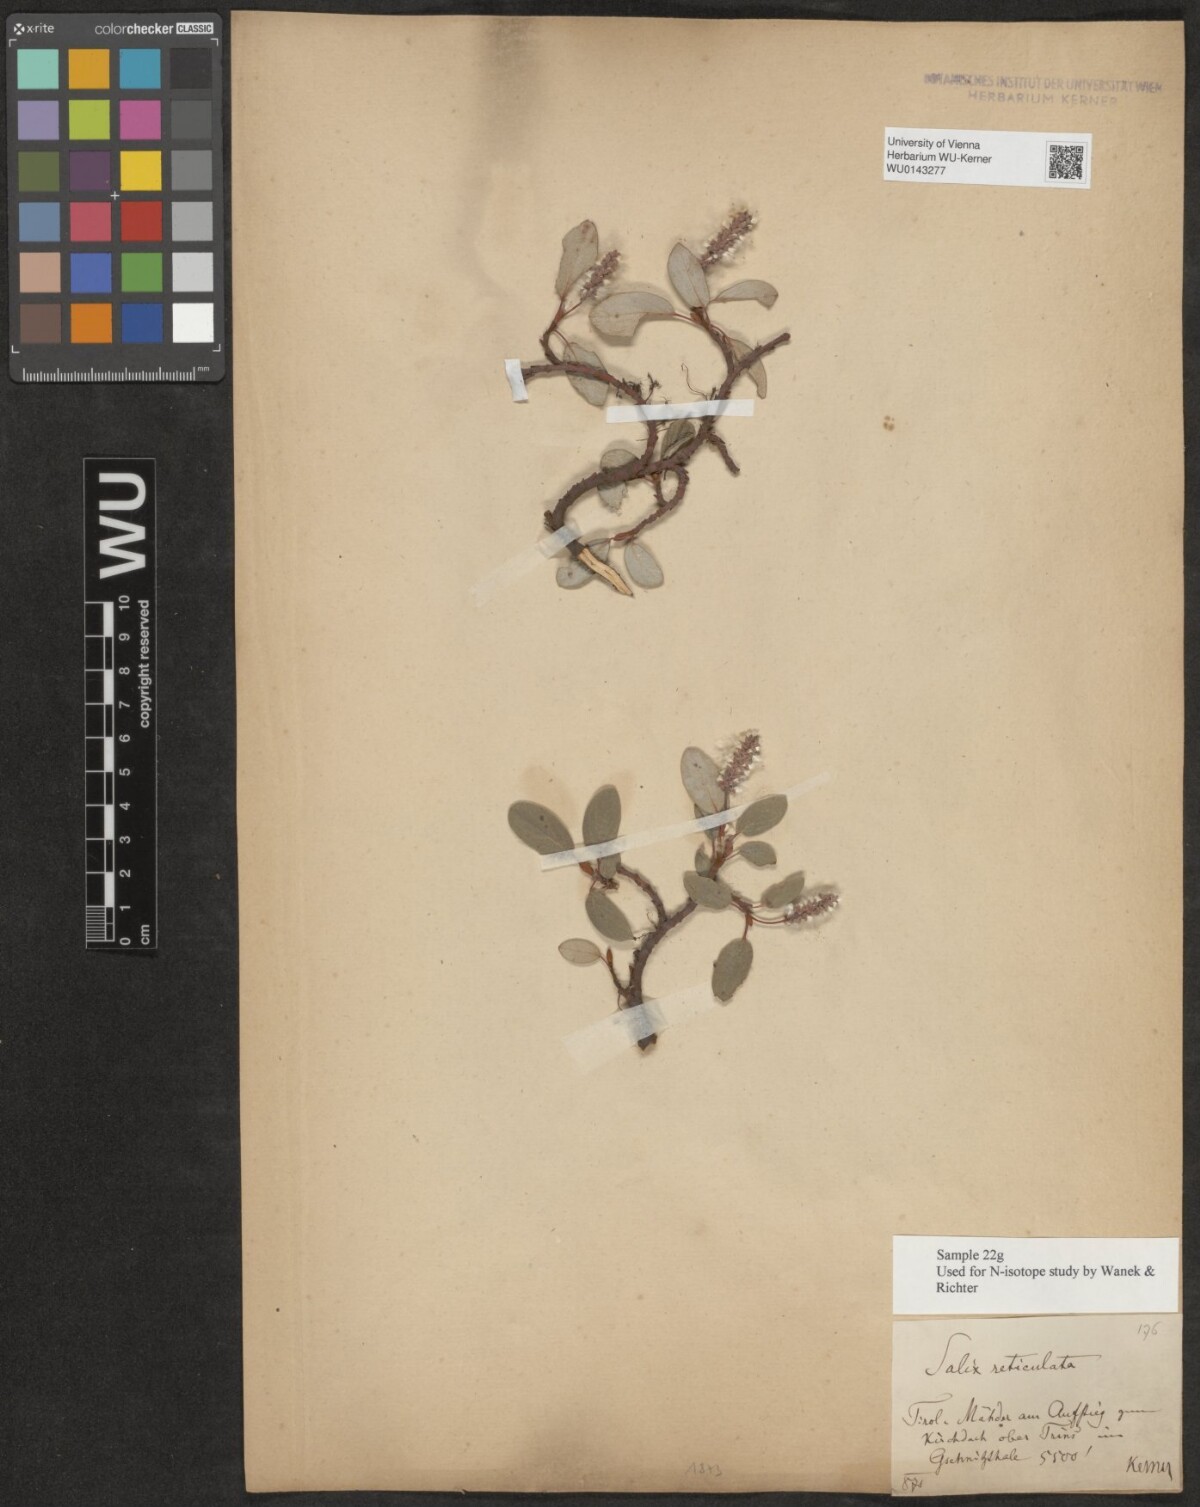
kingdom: Plantae
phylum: Tracheophyta
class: Magnoliopsida
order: Malpighiales
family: Salicaceae
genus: Salix
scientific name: Salix reticulata
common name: Net-leaved willow
